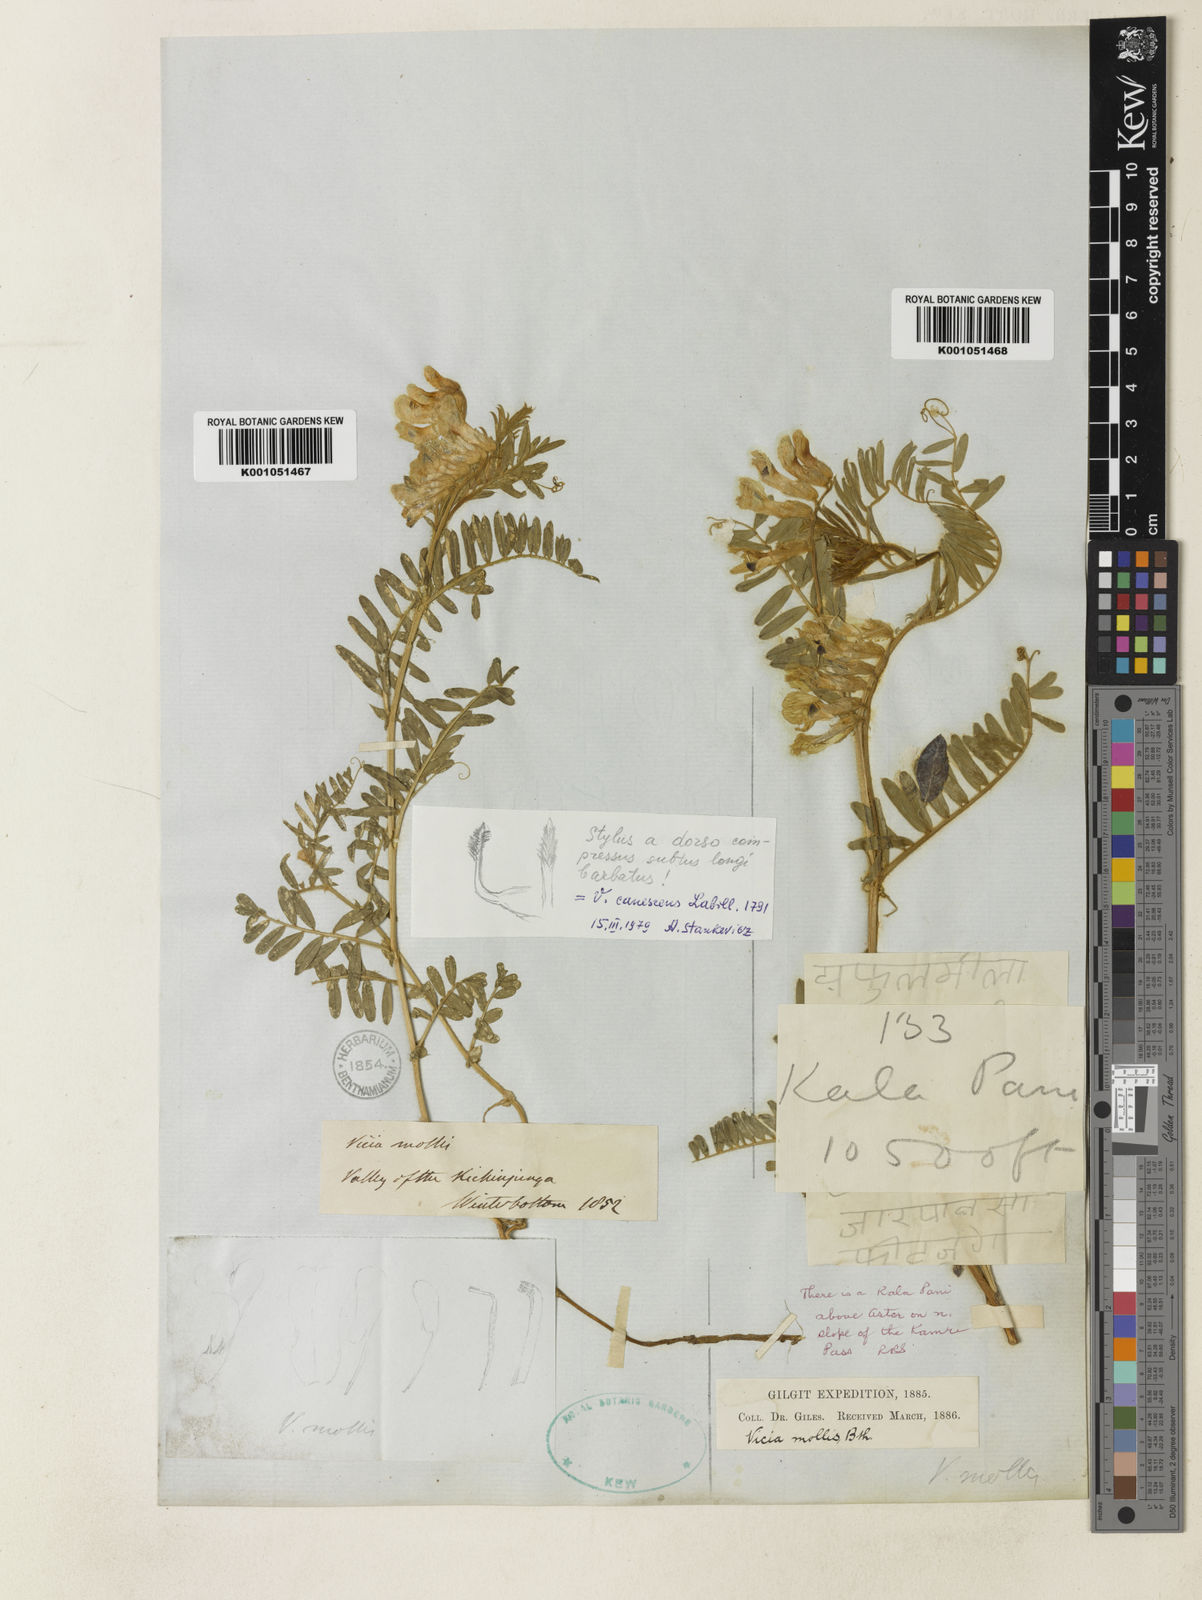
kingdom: Plantae
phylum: Tracheophyta
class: Magnoliopsida
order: Fabales
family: Fabaceae
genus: Vicia
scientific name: Vicia
